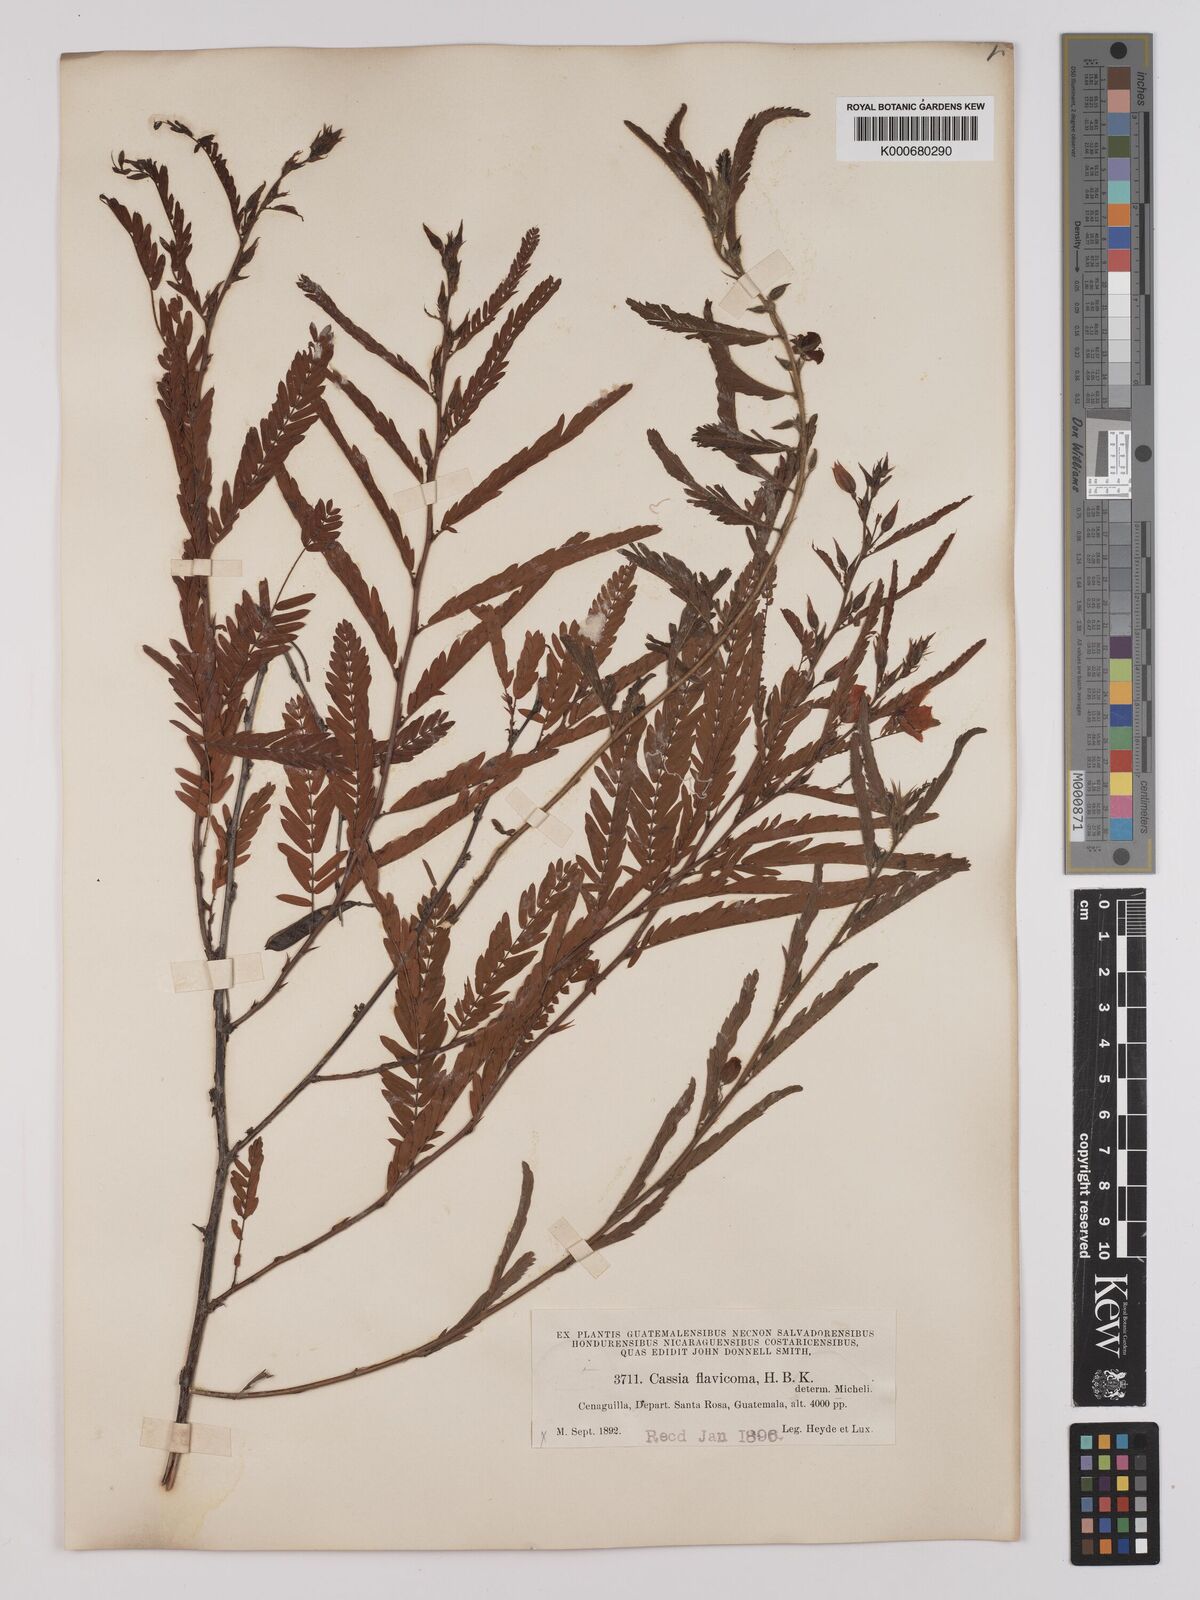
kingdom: Plantae
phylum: Tracheophyta
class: Magnoliopsida
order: Fabales
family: Fabaceae
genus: Chamaecrista
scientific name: Chamaecrista glandulosa
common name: Wild peas
